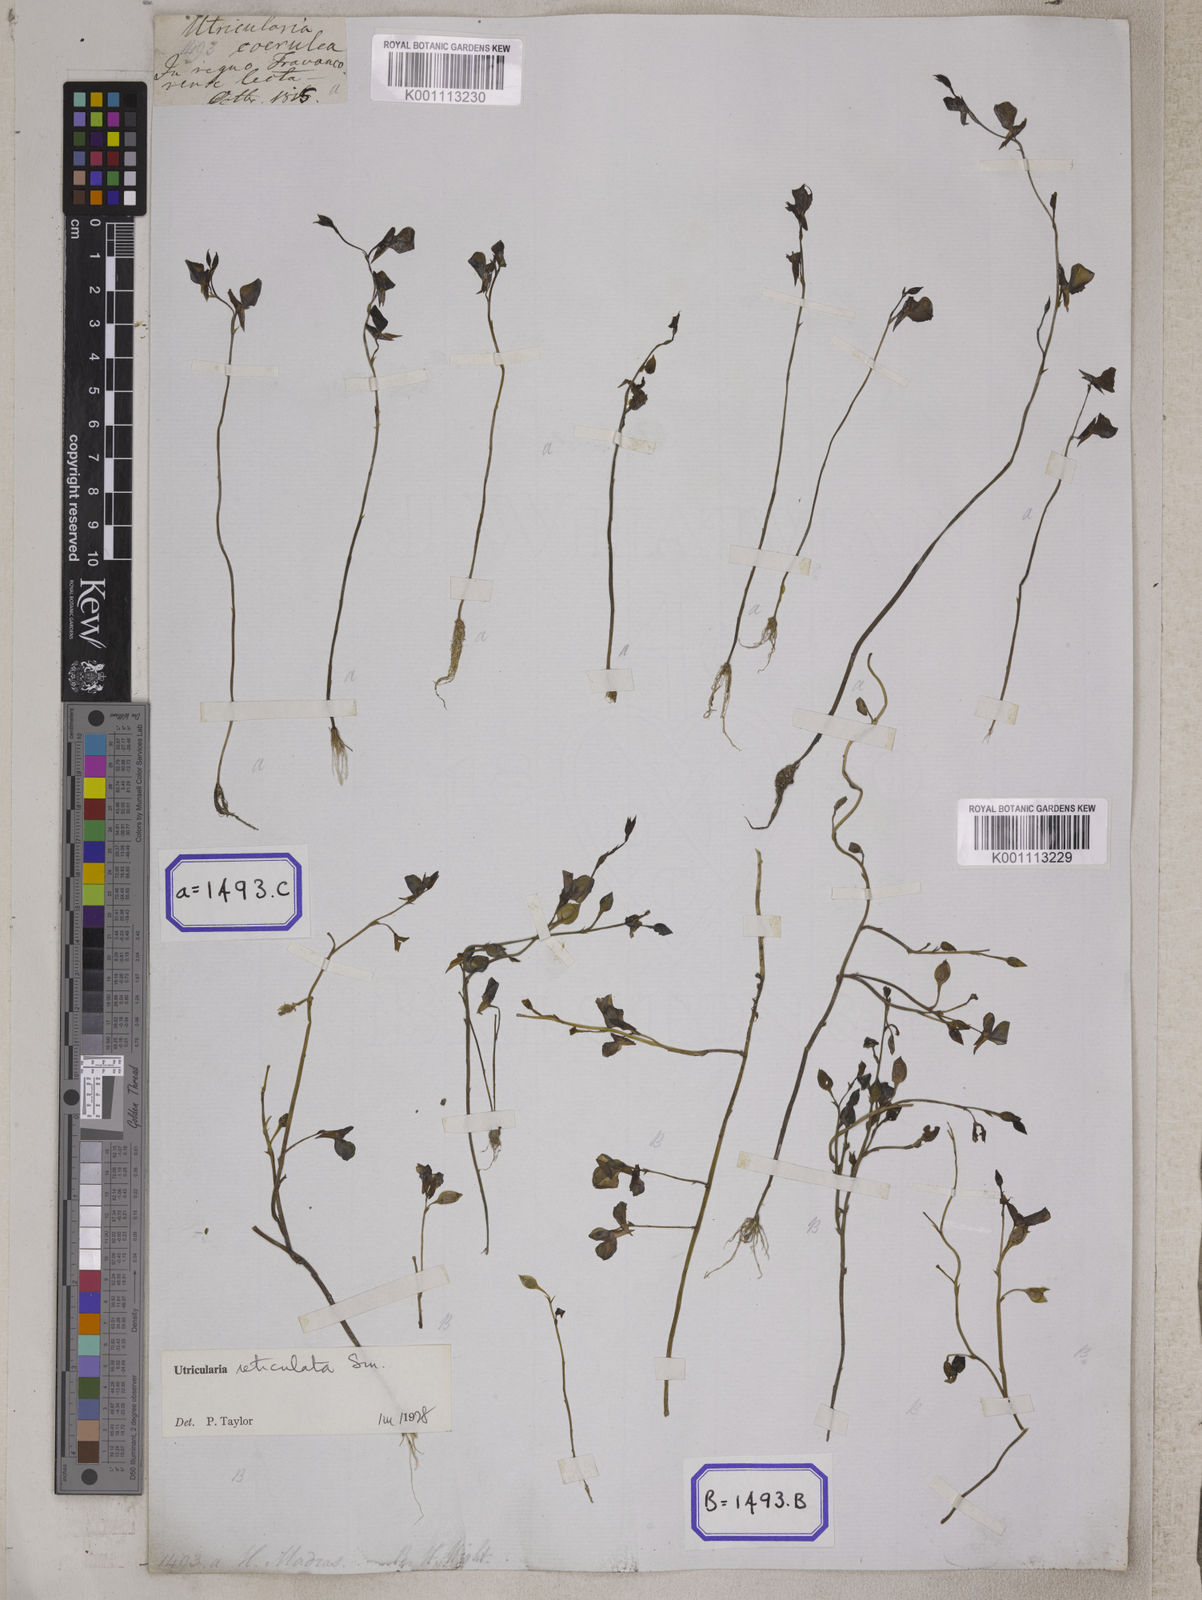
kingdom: Plantae
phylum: Tracheophyta
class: Magnoliopsida
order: Lamiales
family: Lentibulariaceae
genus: Utricularia
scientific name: Utricularia reticulata
